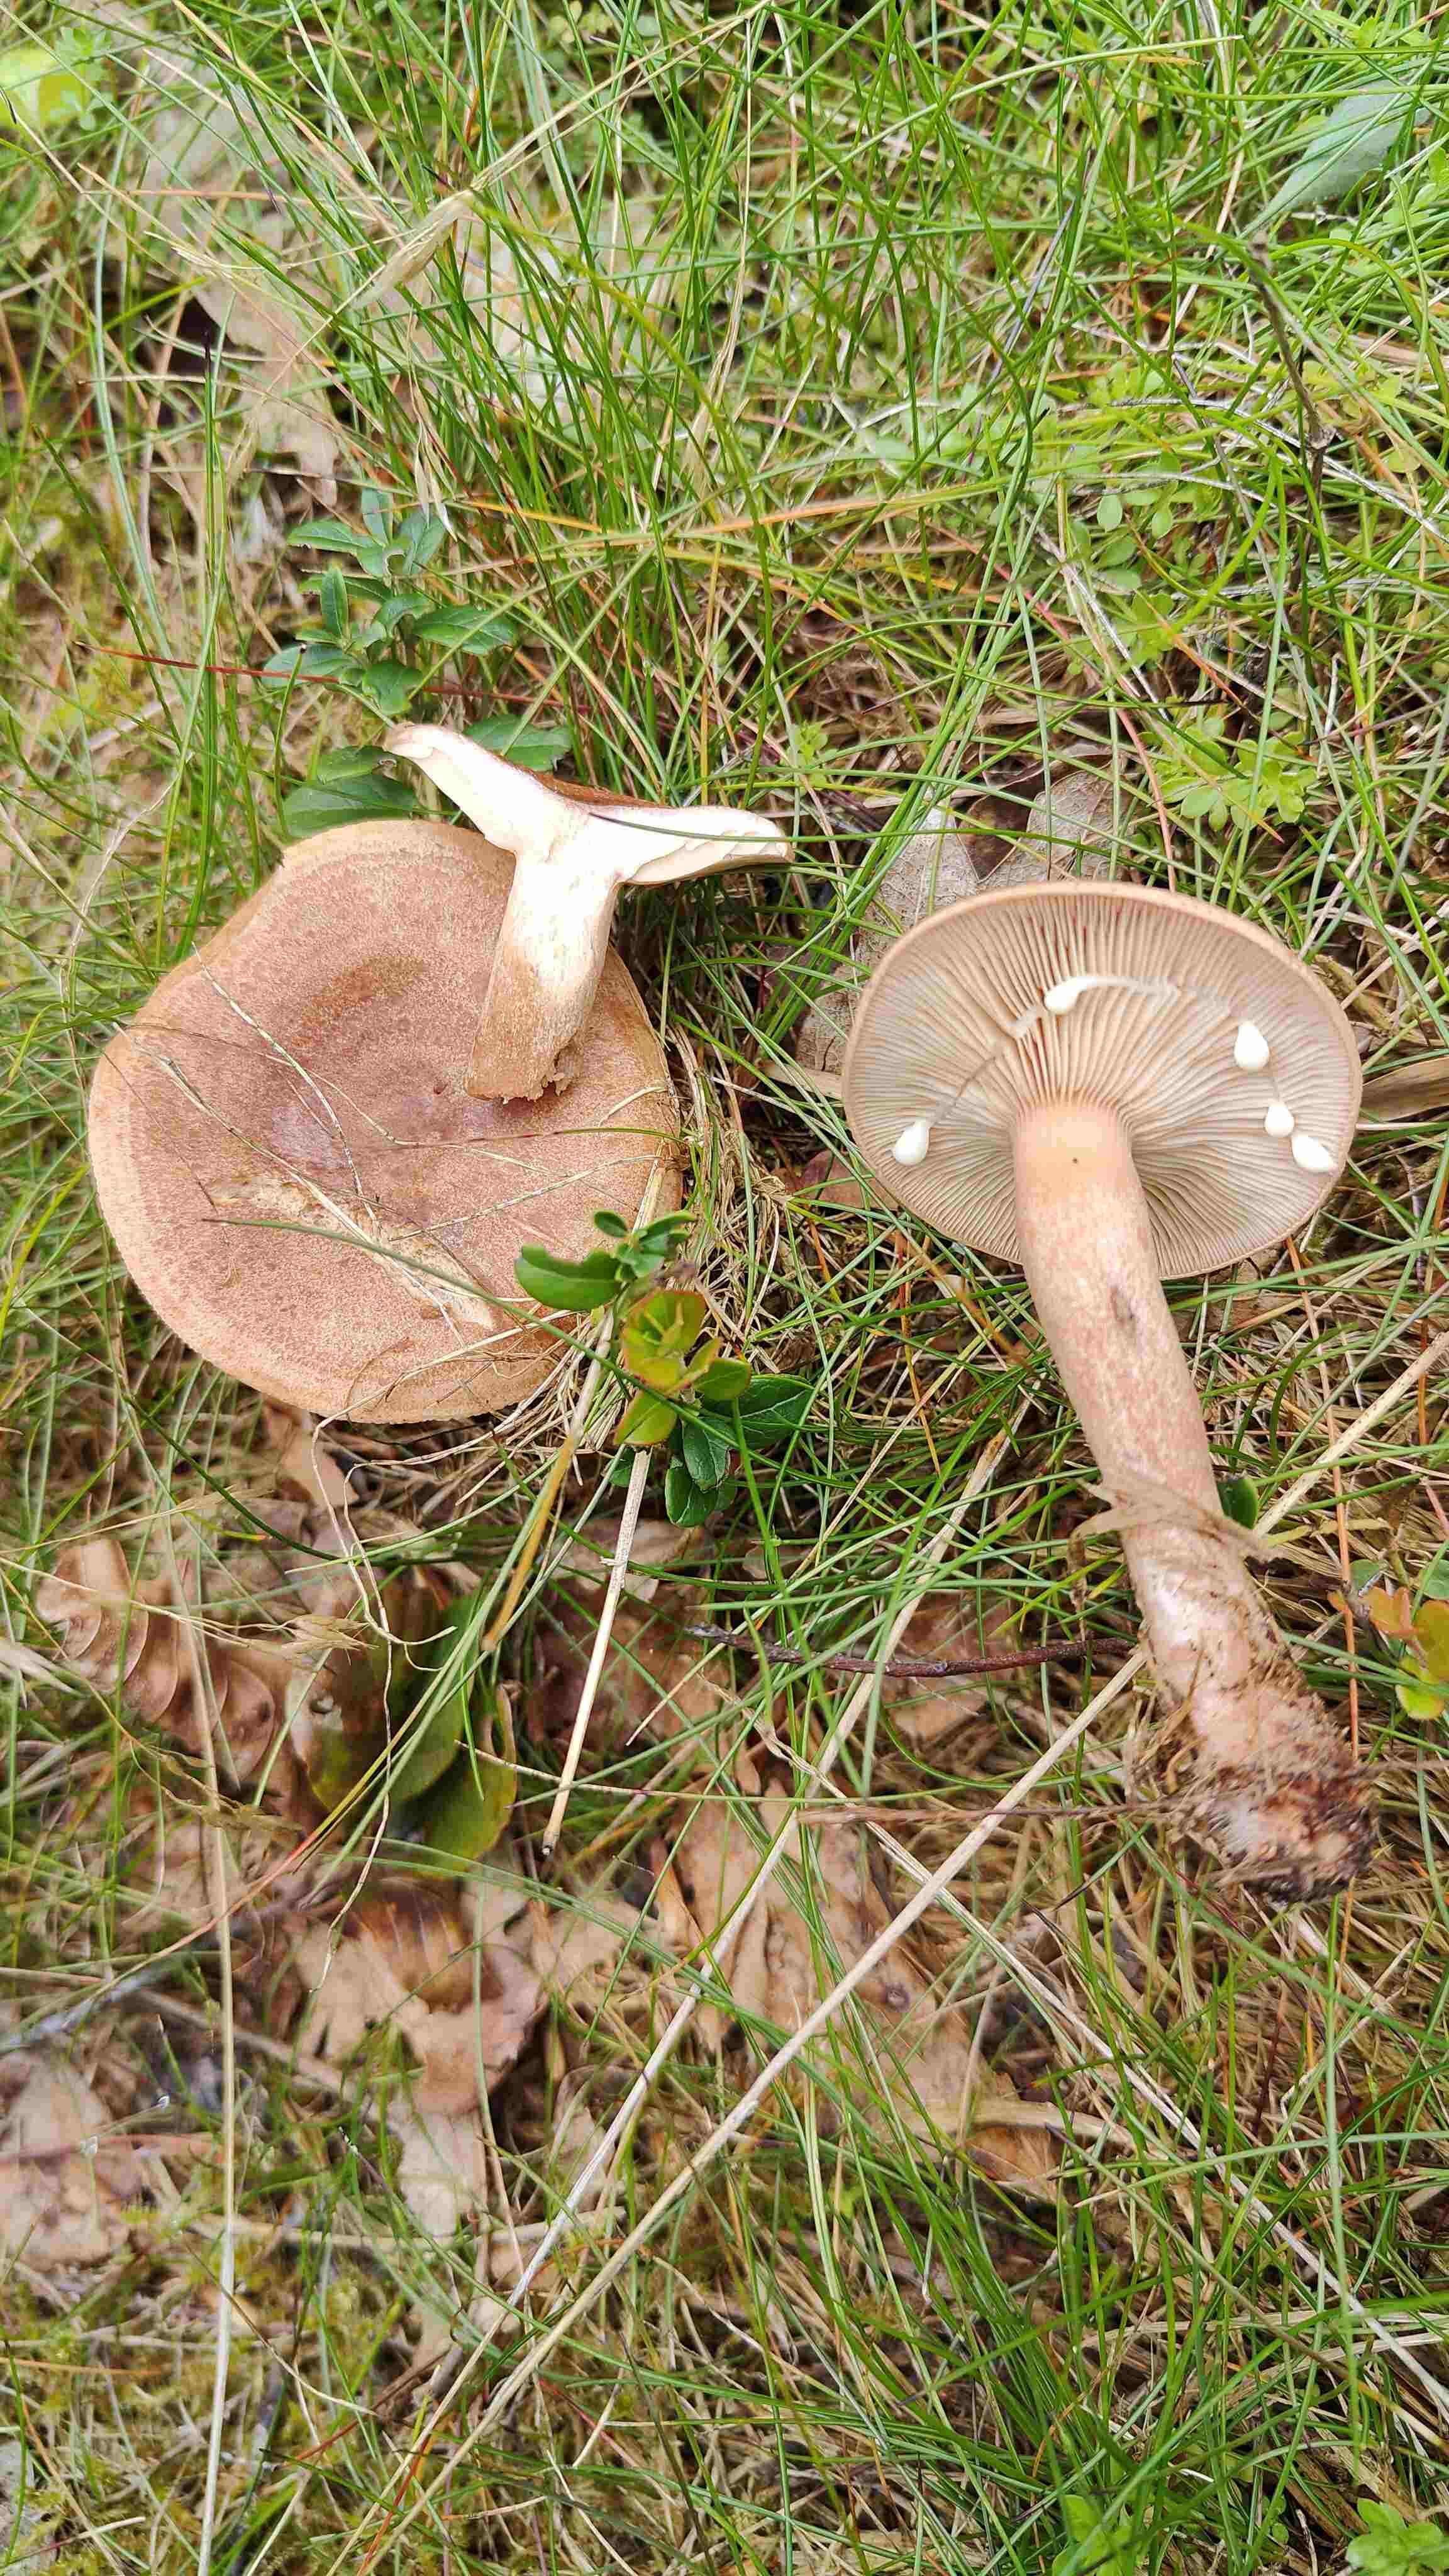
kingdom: Fungi
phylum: Basidiomycota
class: Agaricomycetes
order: Russulales
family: Russulaceae
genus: Lactarius
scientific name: Lactarius quietus
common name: ege-mælkehat
